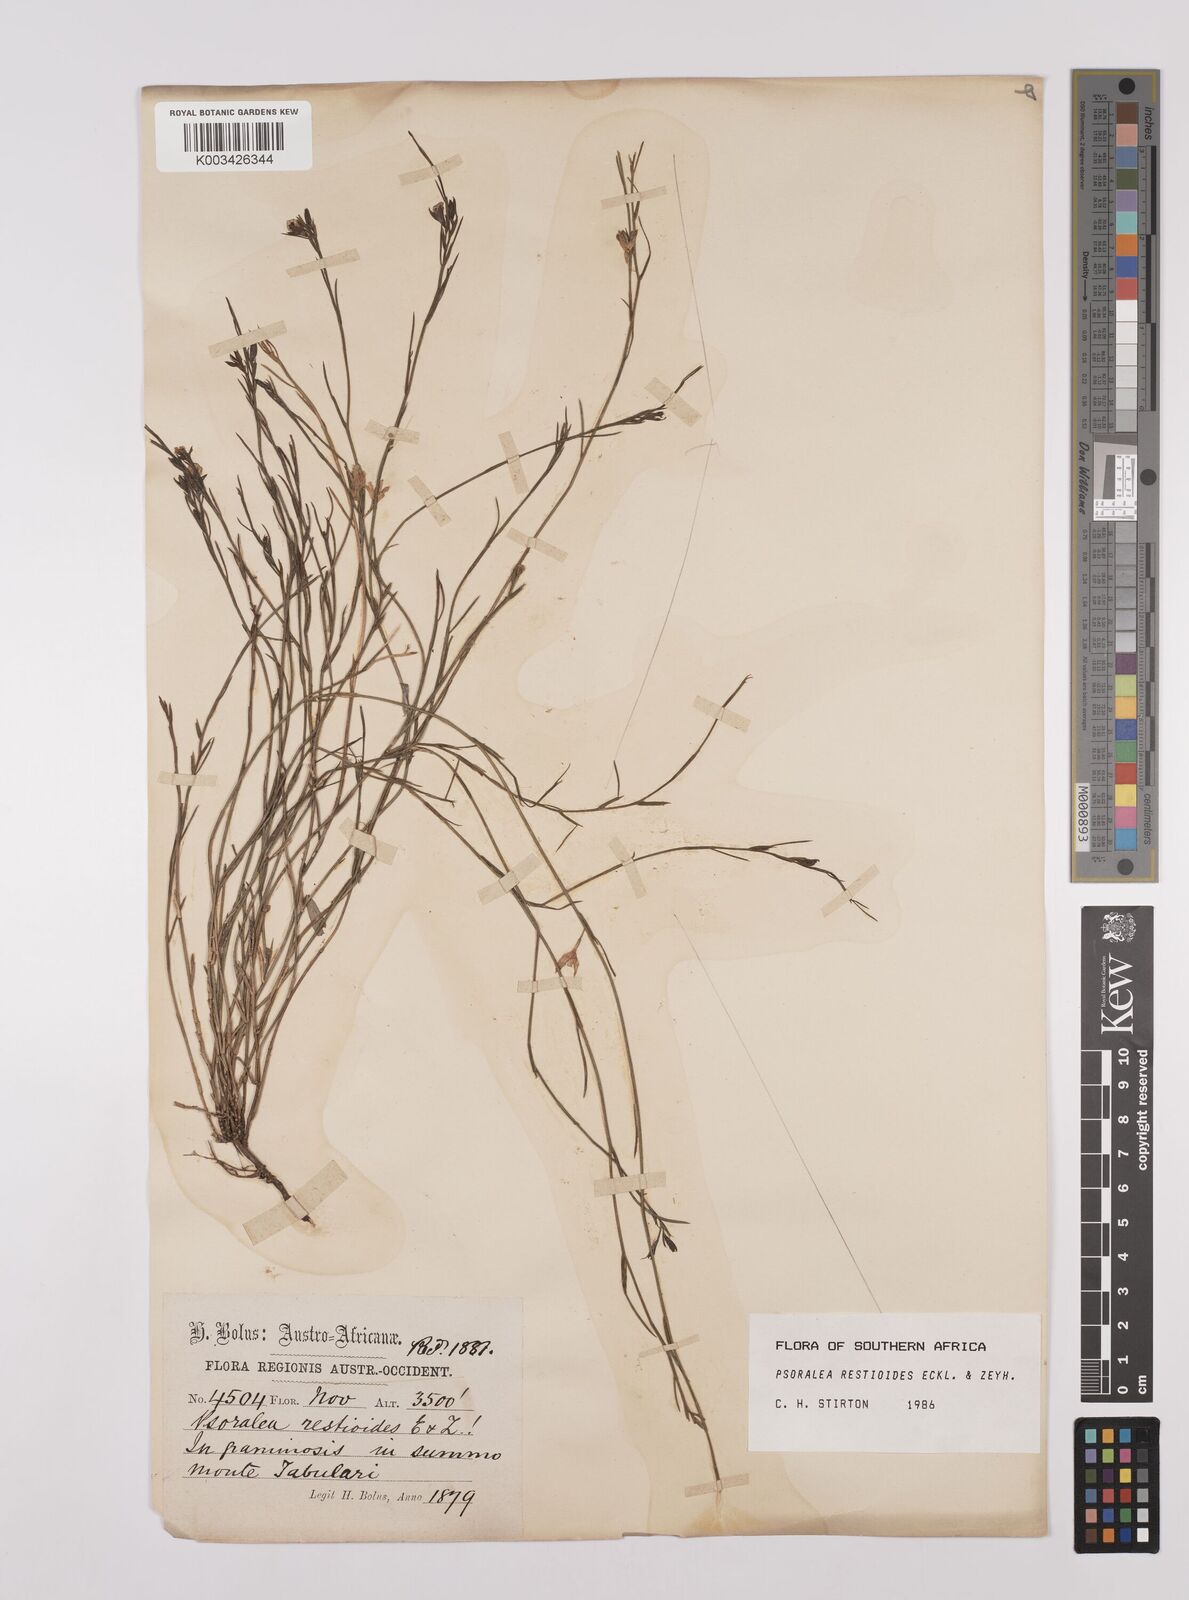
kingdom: Plantae
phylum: Tracheophyta
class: Magnoliopsida
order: Fabales
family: Fabaceae
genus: Psoralea
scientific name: Psoralea restioides
